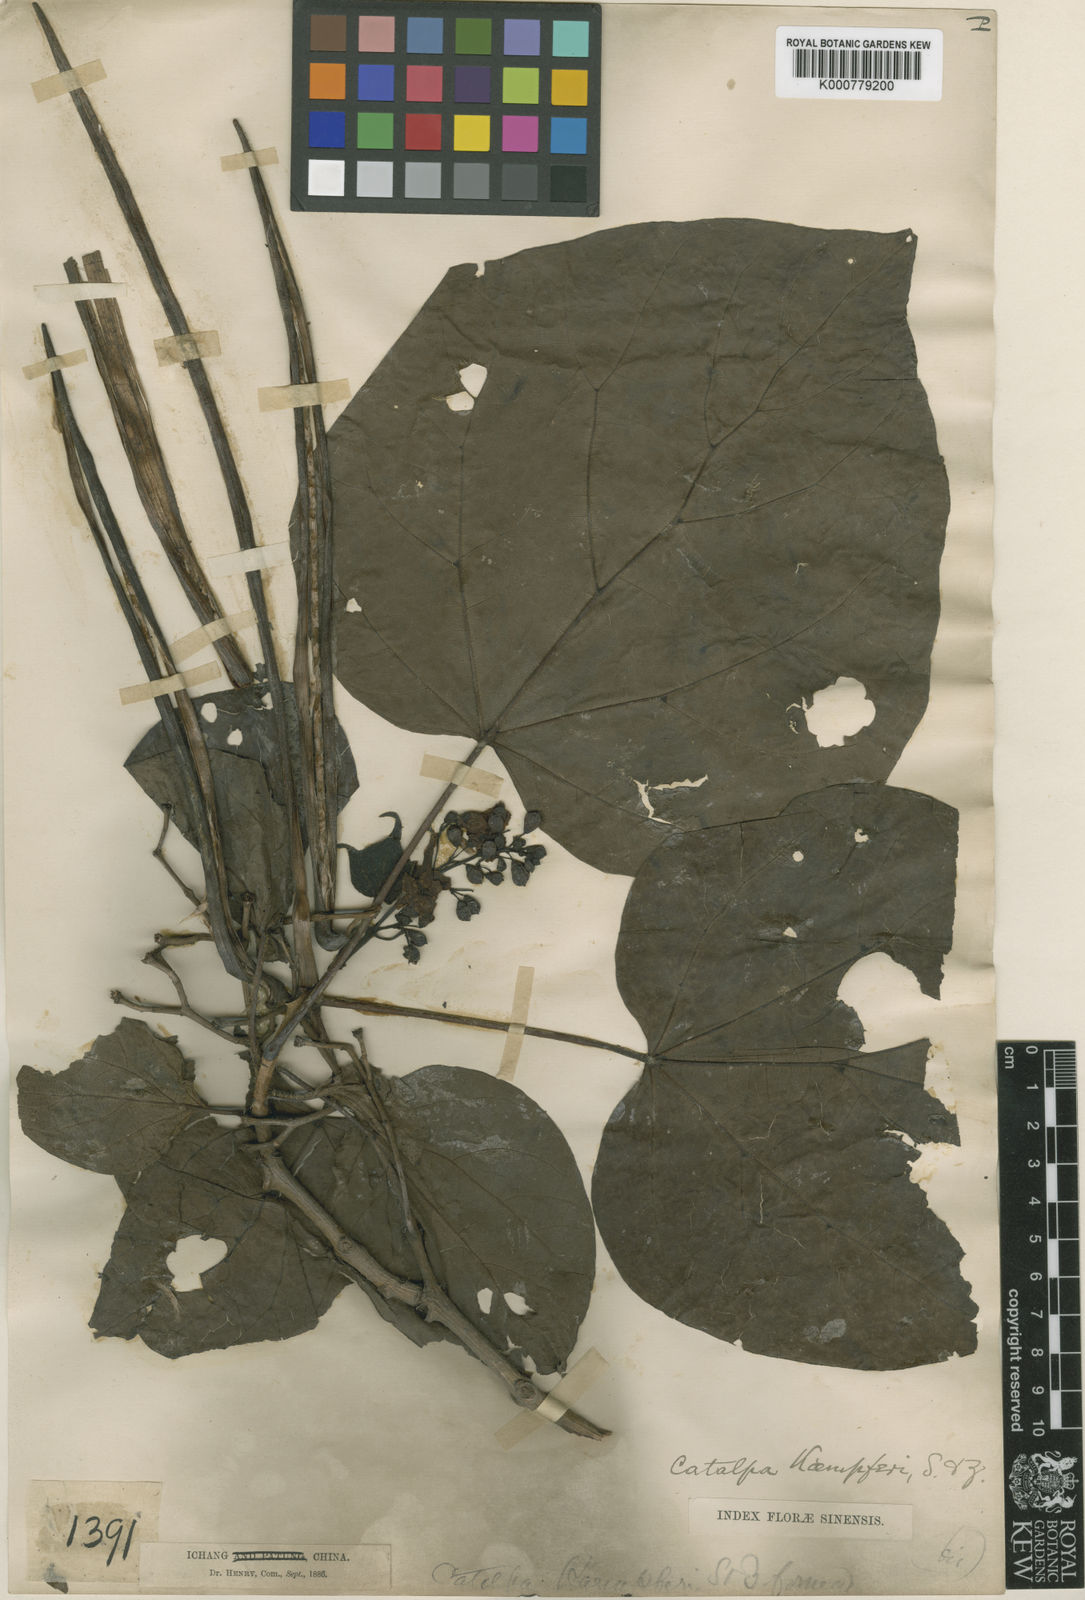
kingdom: Plantae
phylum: Tracheophyta
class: Magnoliopsida
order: Lamiales
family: Bignoniaceae
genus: Catalpa
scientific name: Catalpa ovata
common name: Chinese catalpa
